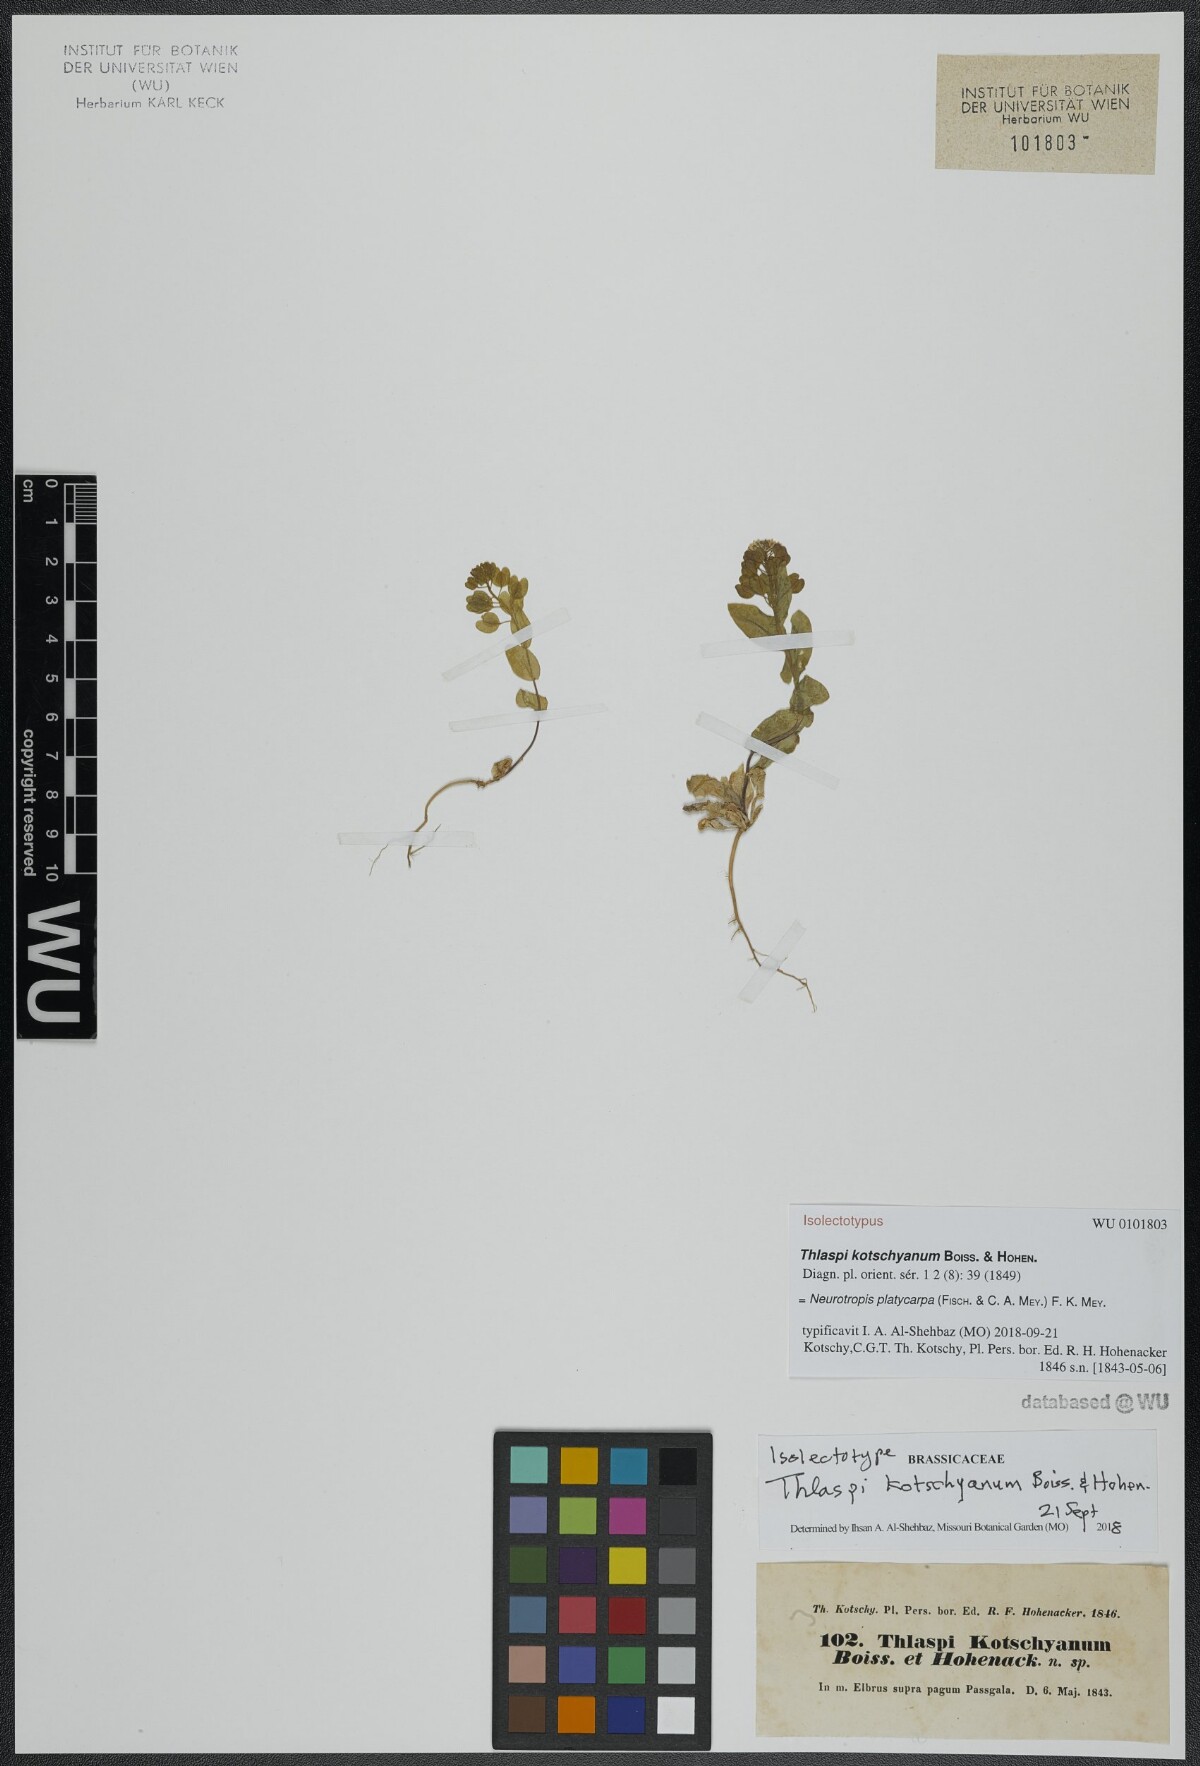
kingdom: Plantae
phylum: Tracheophyta
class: Magnoliopsida
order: Brassicales
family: Brassicaceae
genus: Noccaea
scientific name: Noccaea platycarpa
